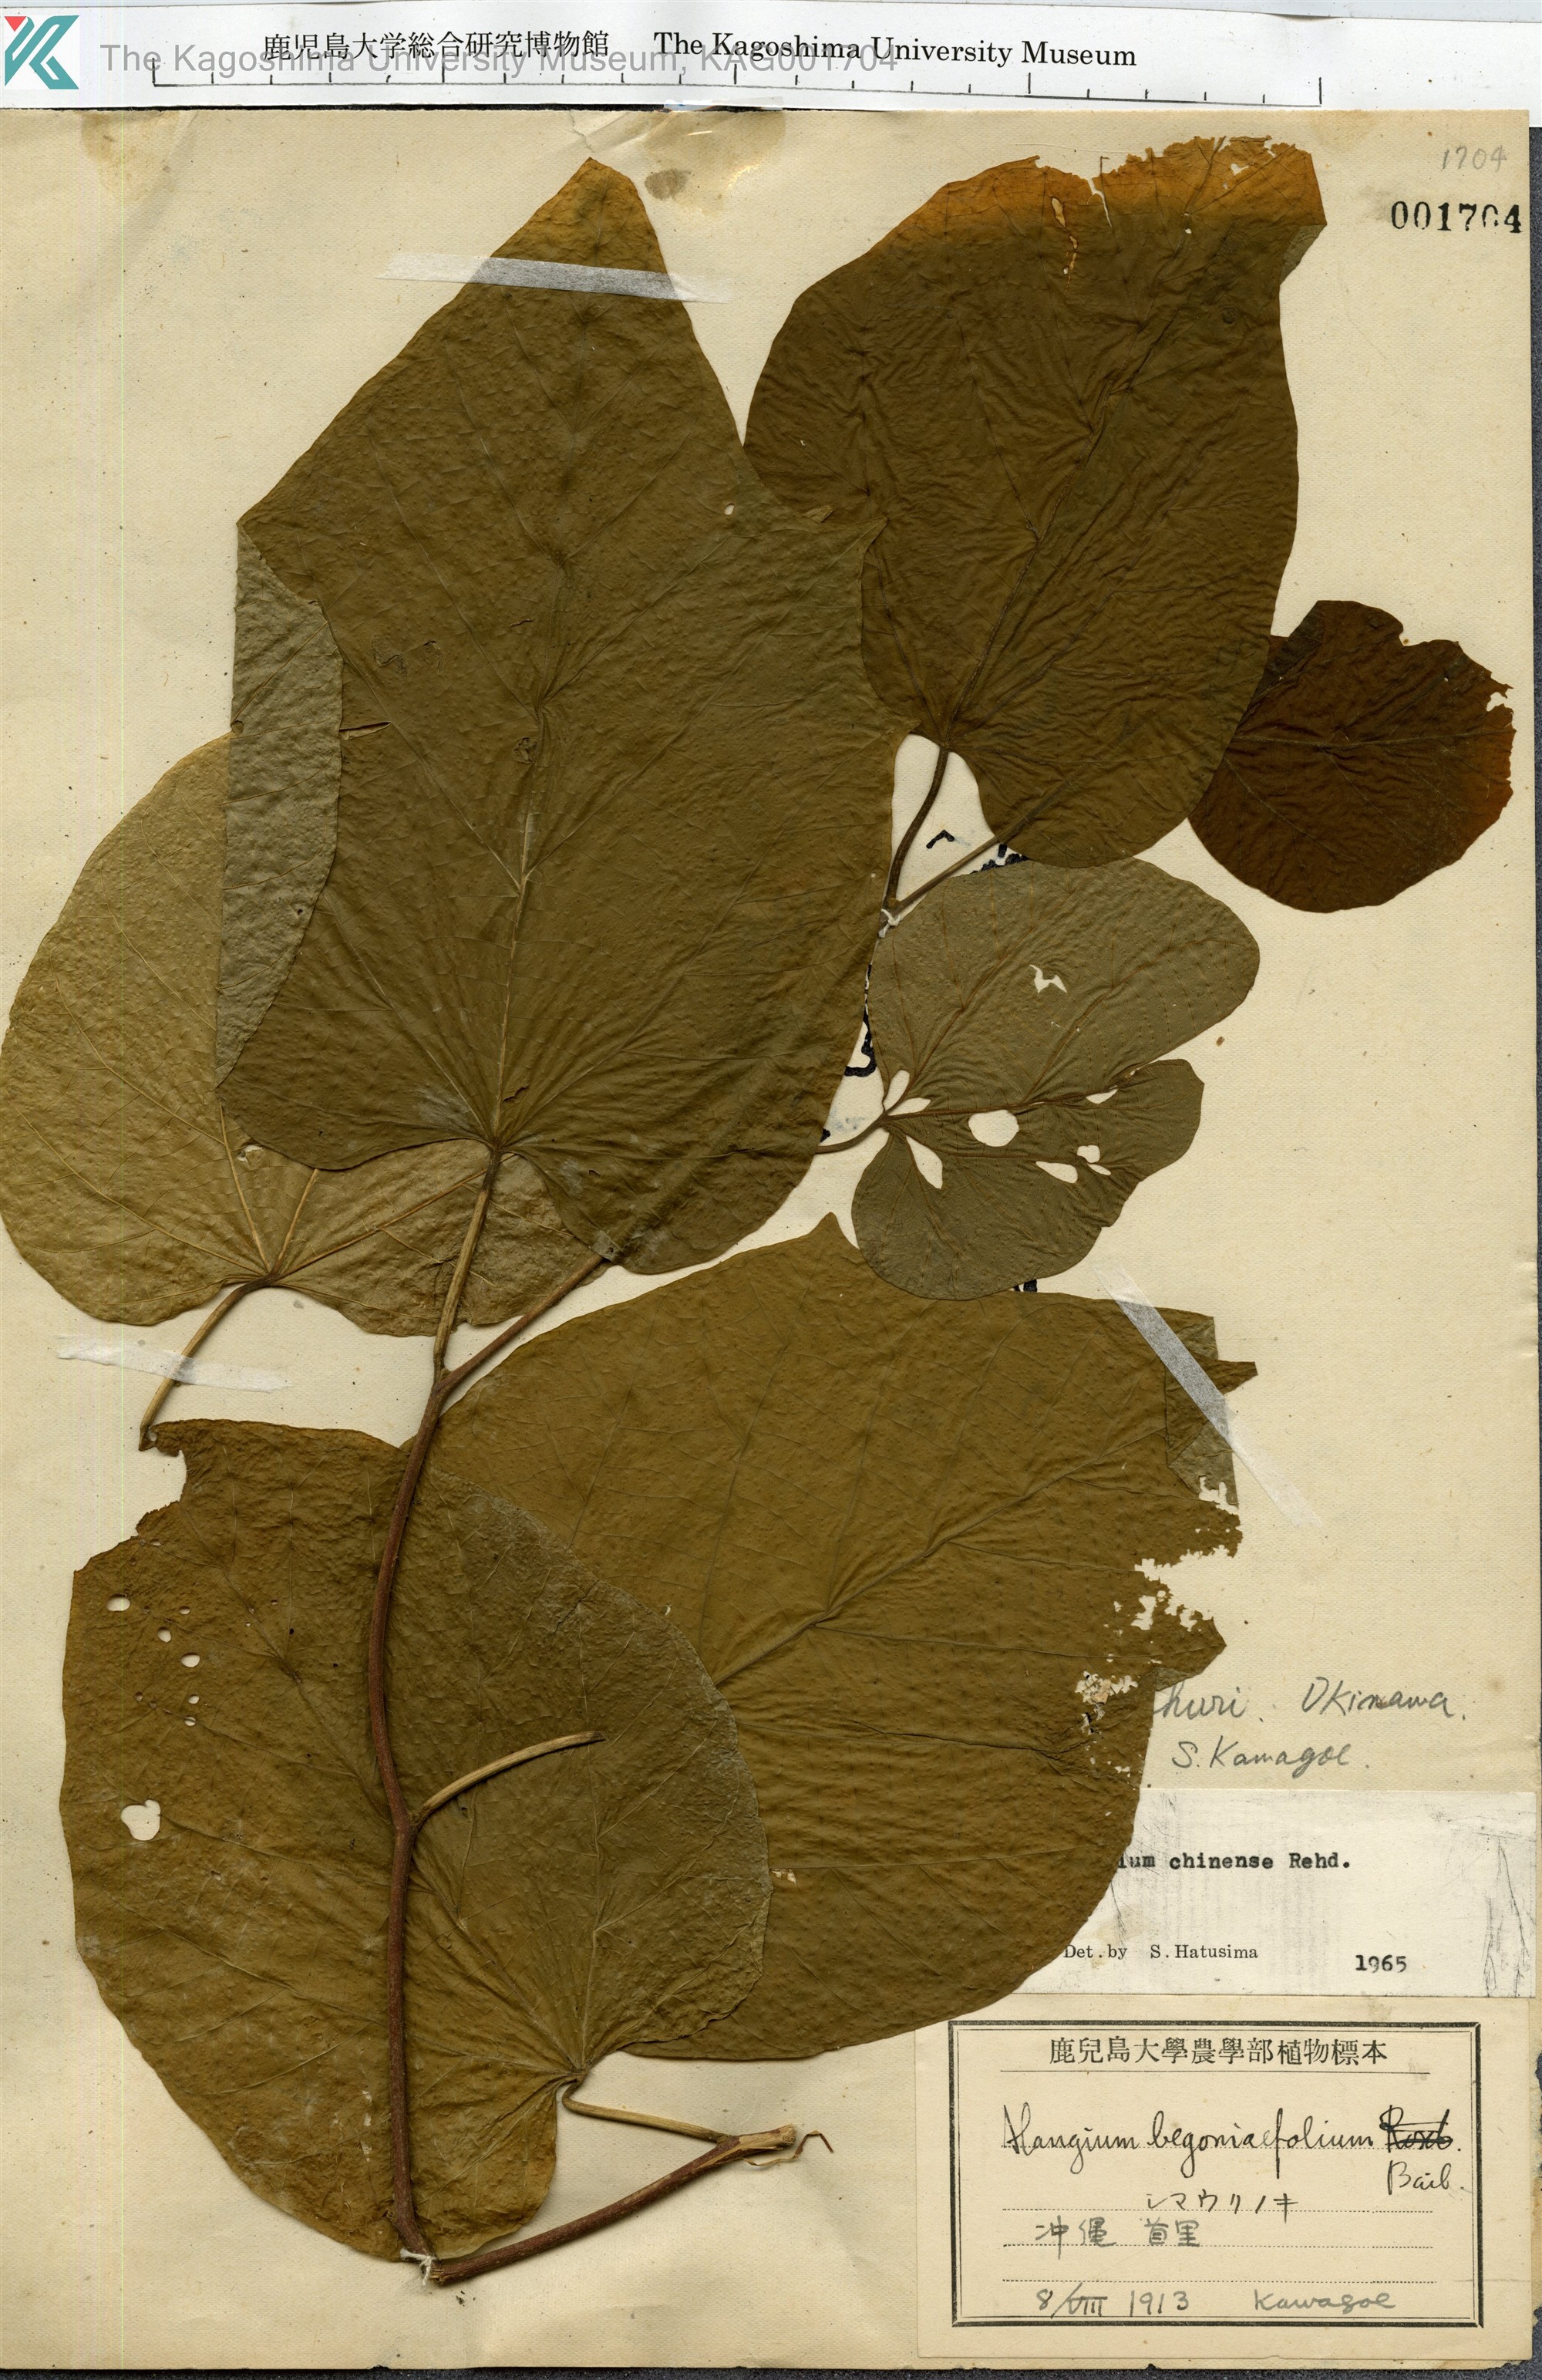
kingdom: Plantae
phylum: Tracheophyta
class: Magnoliopsida
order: Cornales
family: Cornaceae
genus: Alangium
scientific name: Alangium chinense
